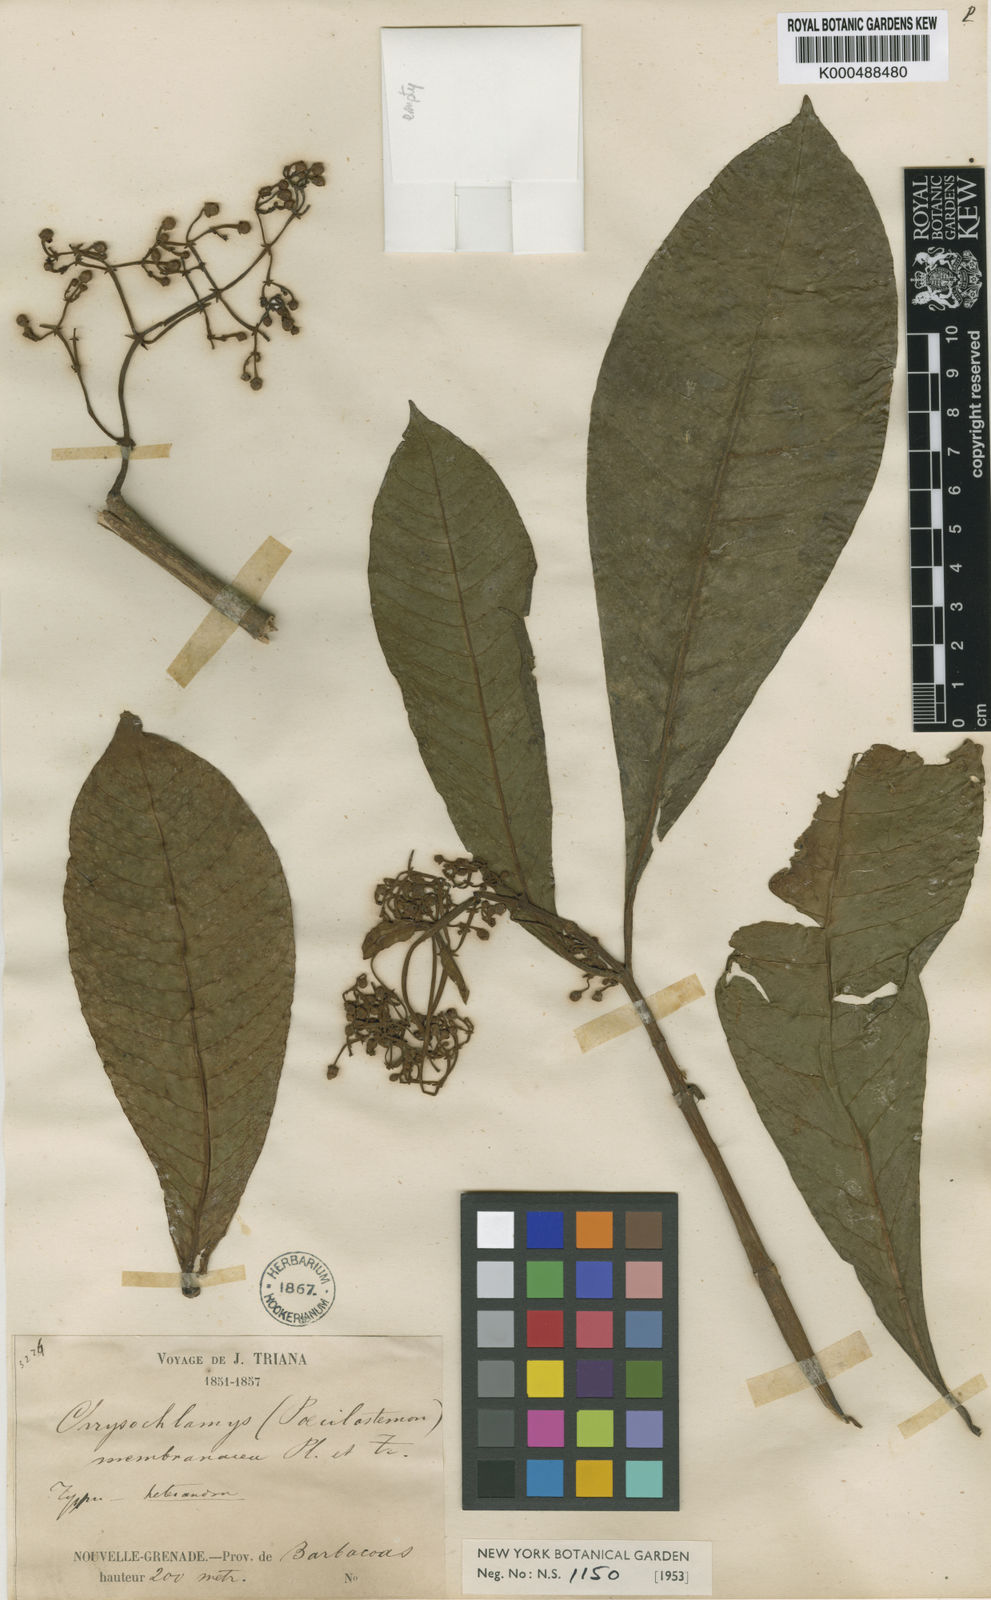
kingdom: Plantae
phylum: Tracheophyta
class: Magnoliopsida
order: Malpighiales
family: Clusiaceae
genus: Chrysochlamys
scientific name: Chrysochlamys membranacea
